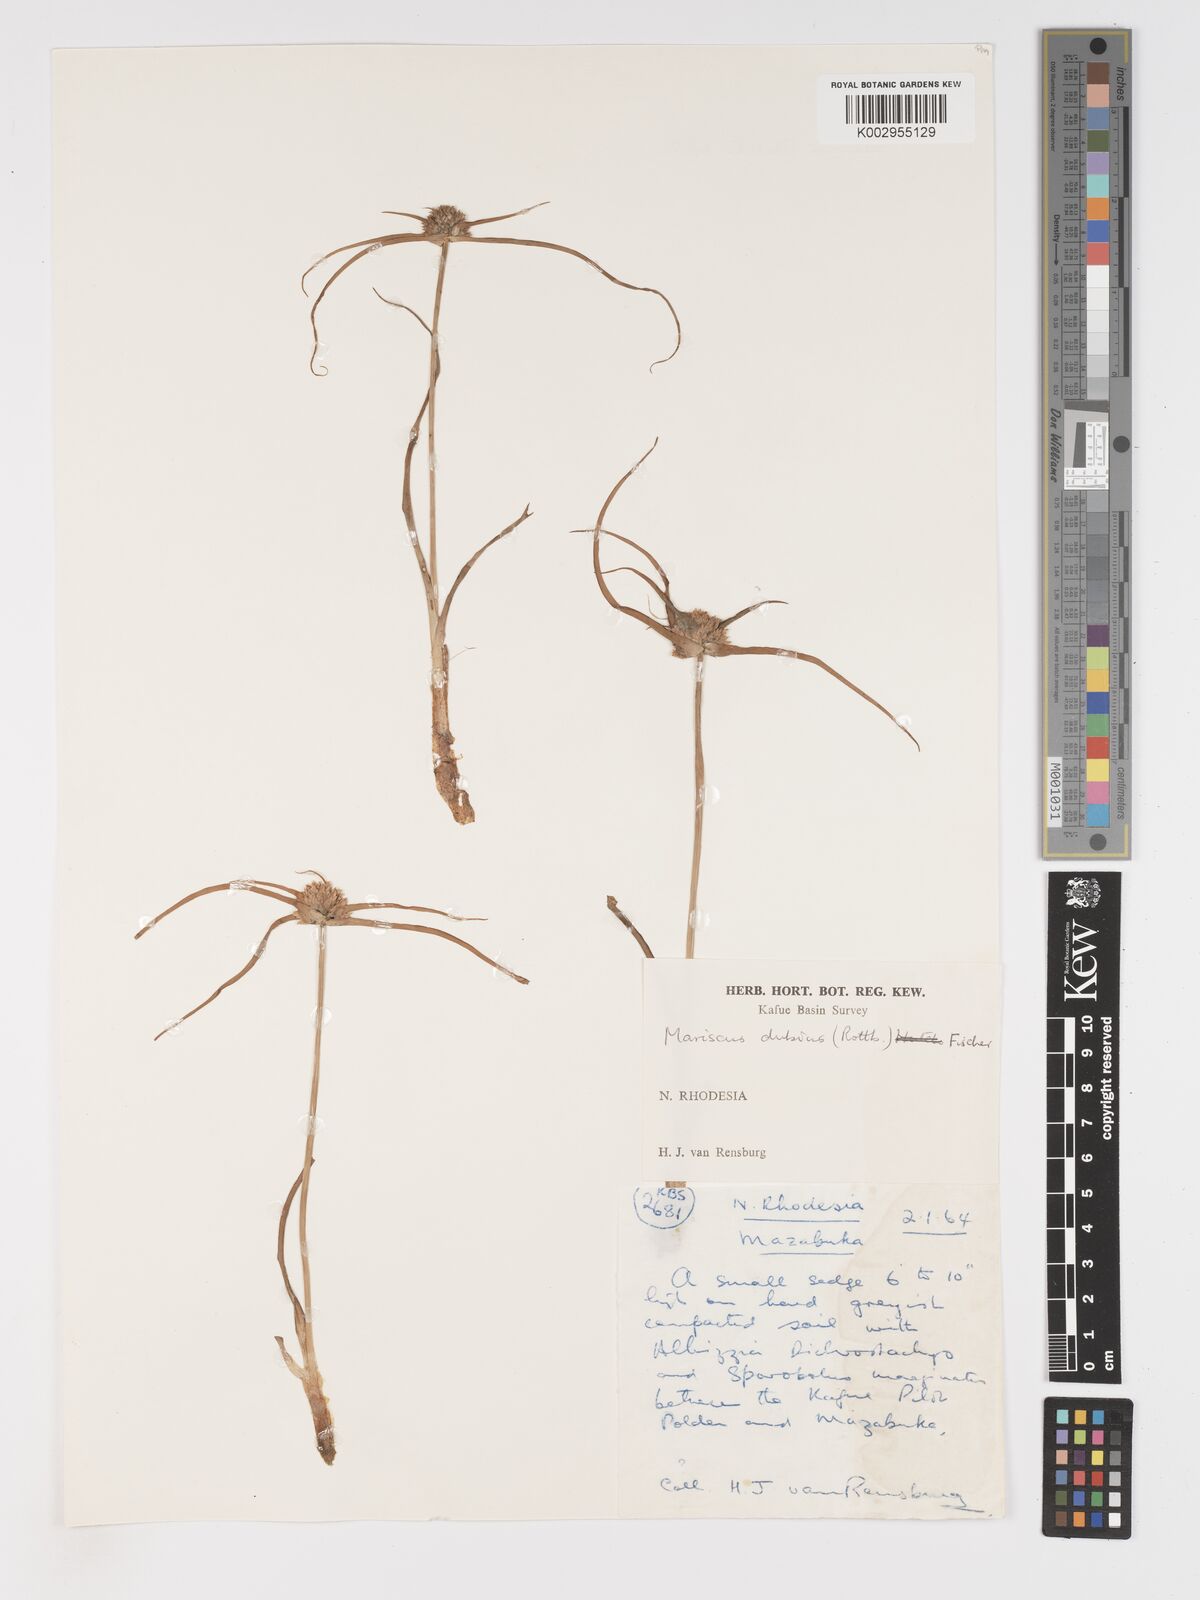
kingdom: Plantae
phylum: Tracheophyta
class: Liliopsida
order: Poales
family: Cyperaceae
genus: Cyperus
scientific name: Cyperus dubius
